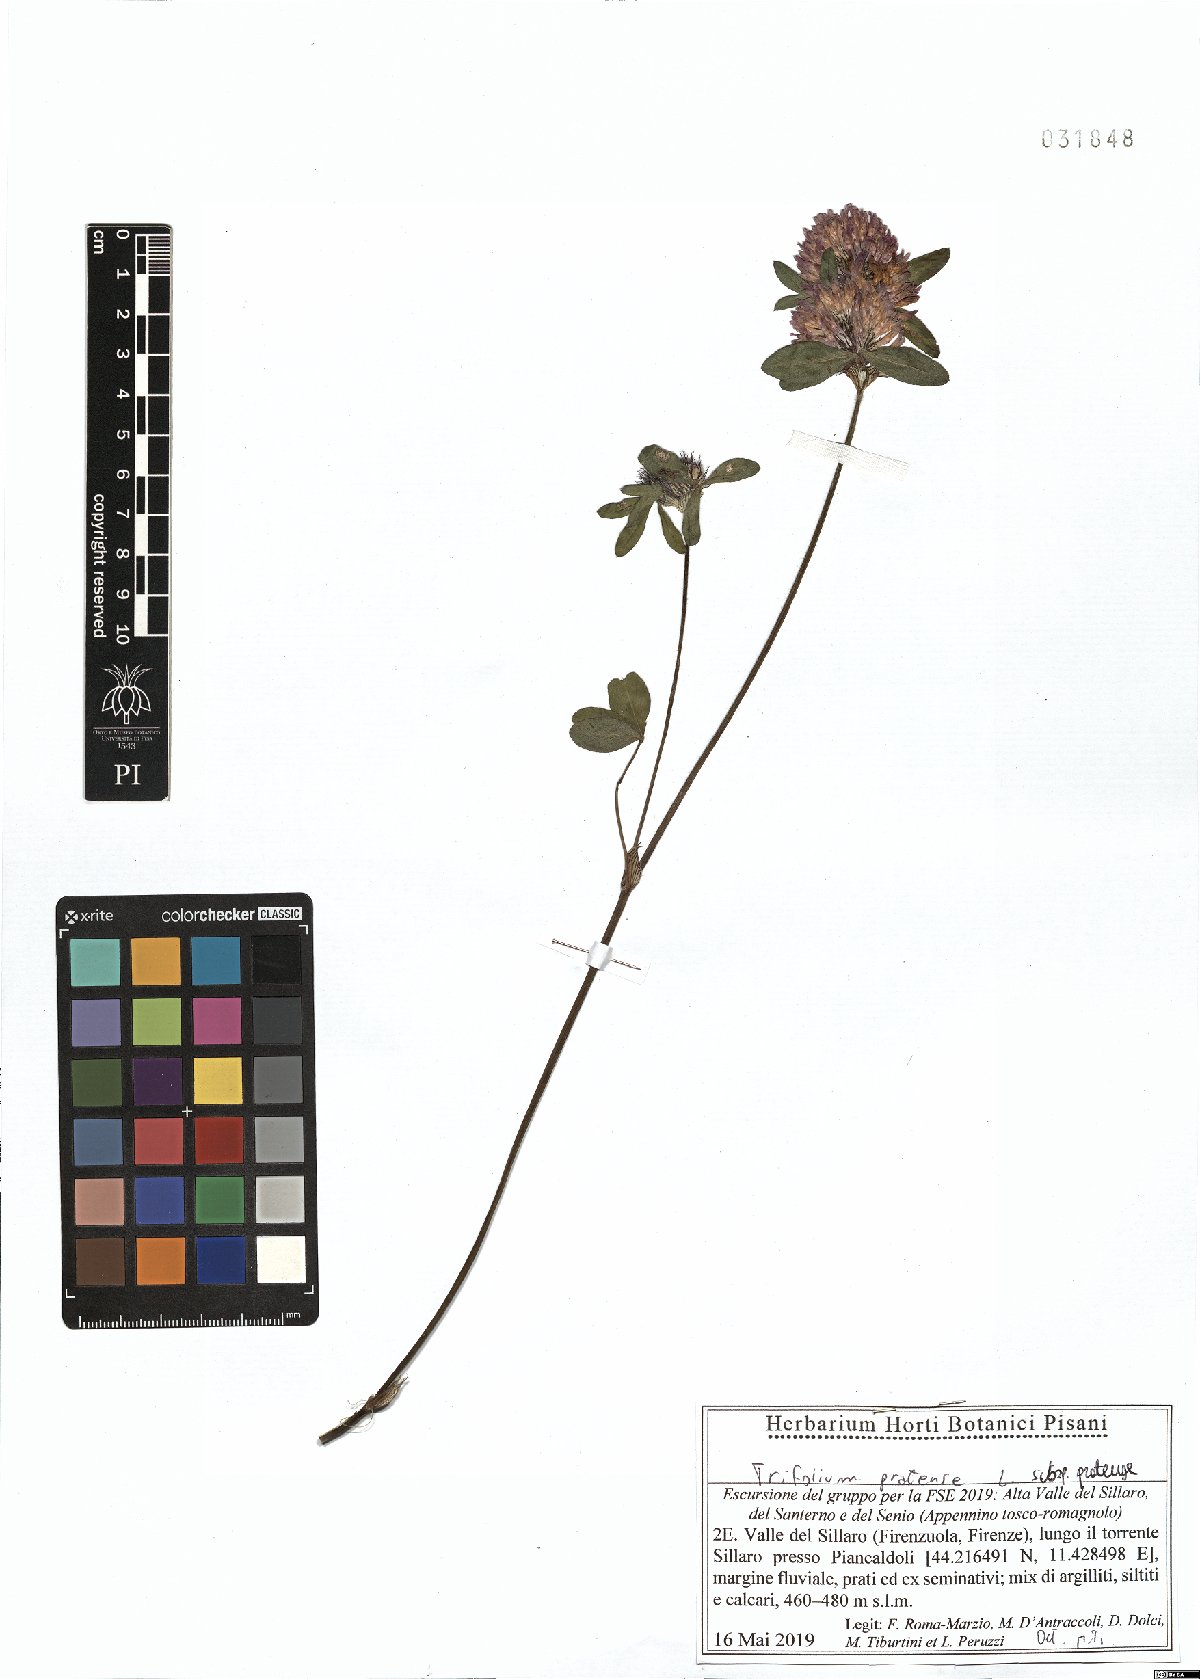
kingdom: Plantae
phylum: Tracheophyta
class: Magnoliopsida
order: Fabales
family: Fabaceae
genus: Trifolium
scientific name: Trifolium pratense
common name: Red clover
